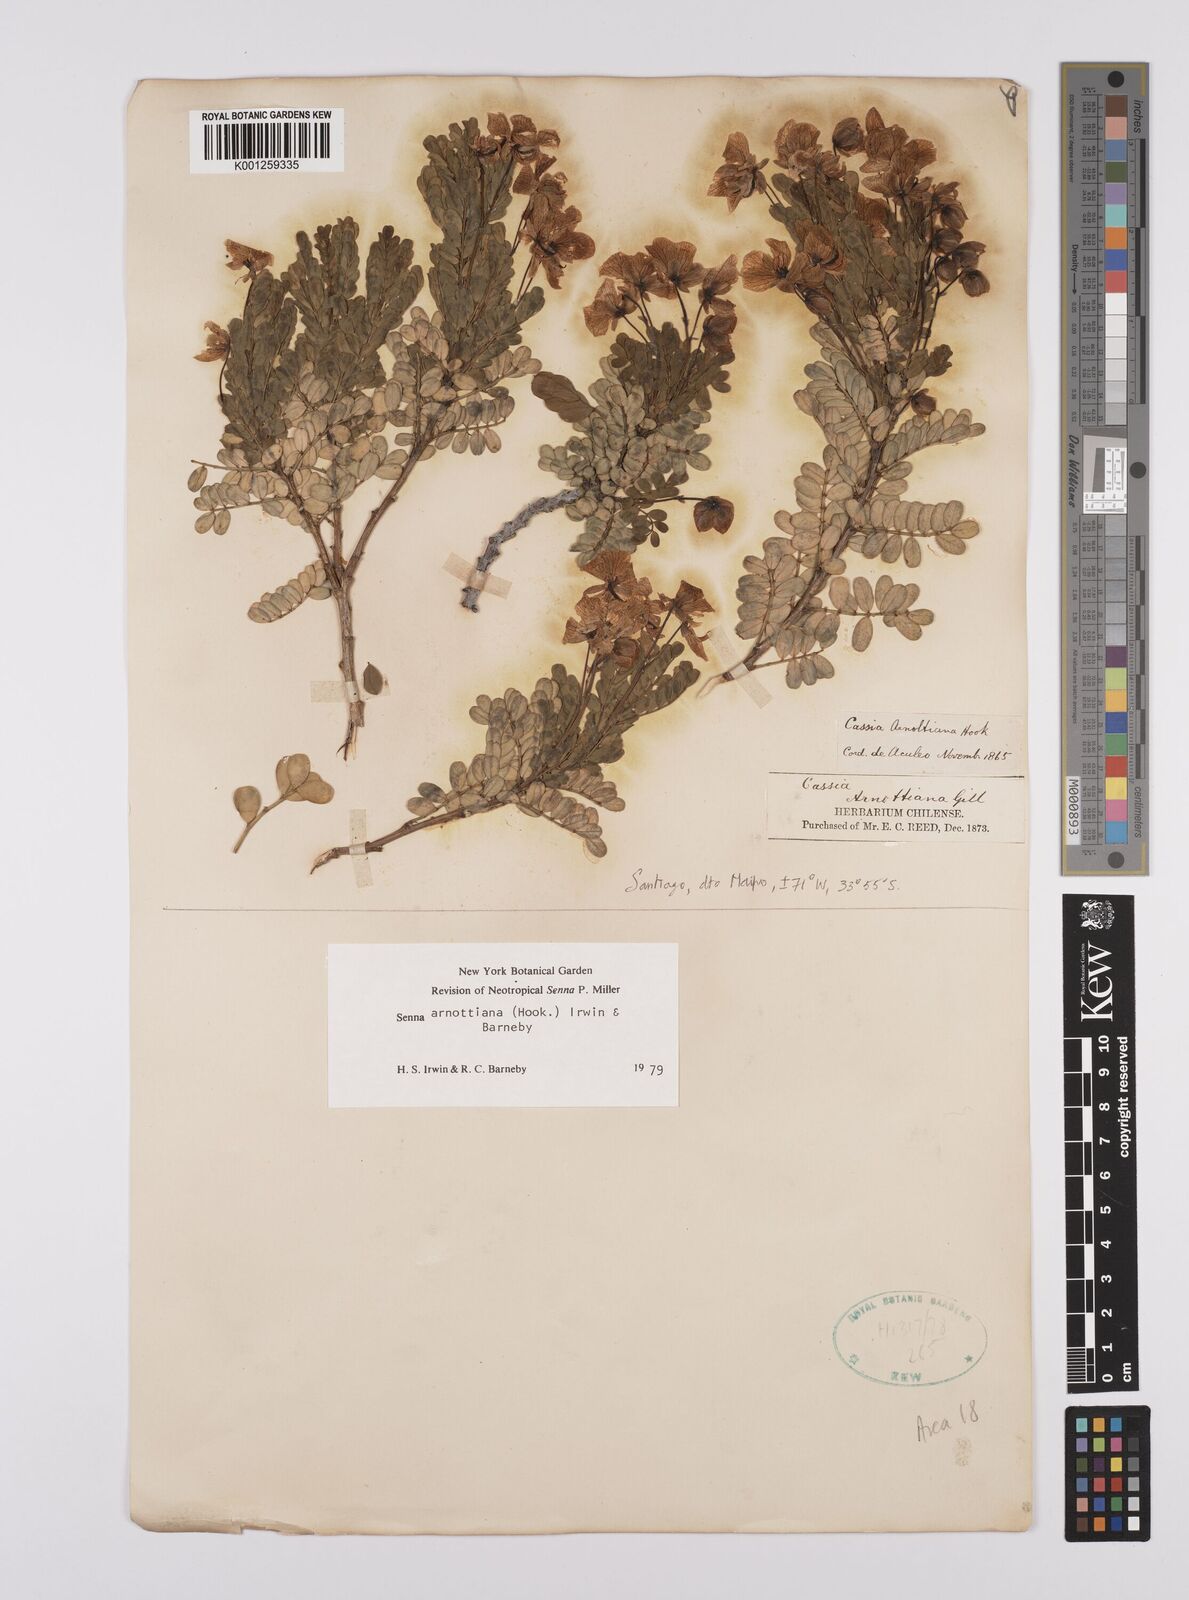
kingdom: Plantae
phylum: Tracheophyta
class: Magnoliopsida
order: Fabales
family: Fabaceae
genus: Senna
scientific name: Senna arnottiana
